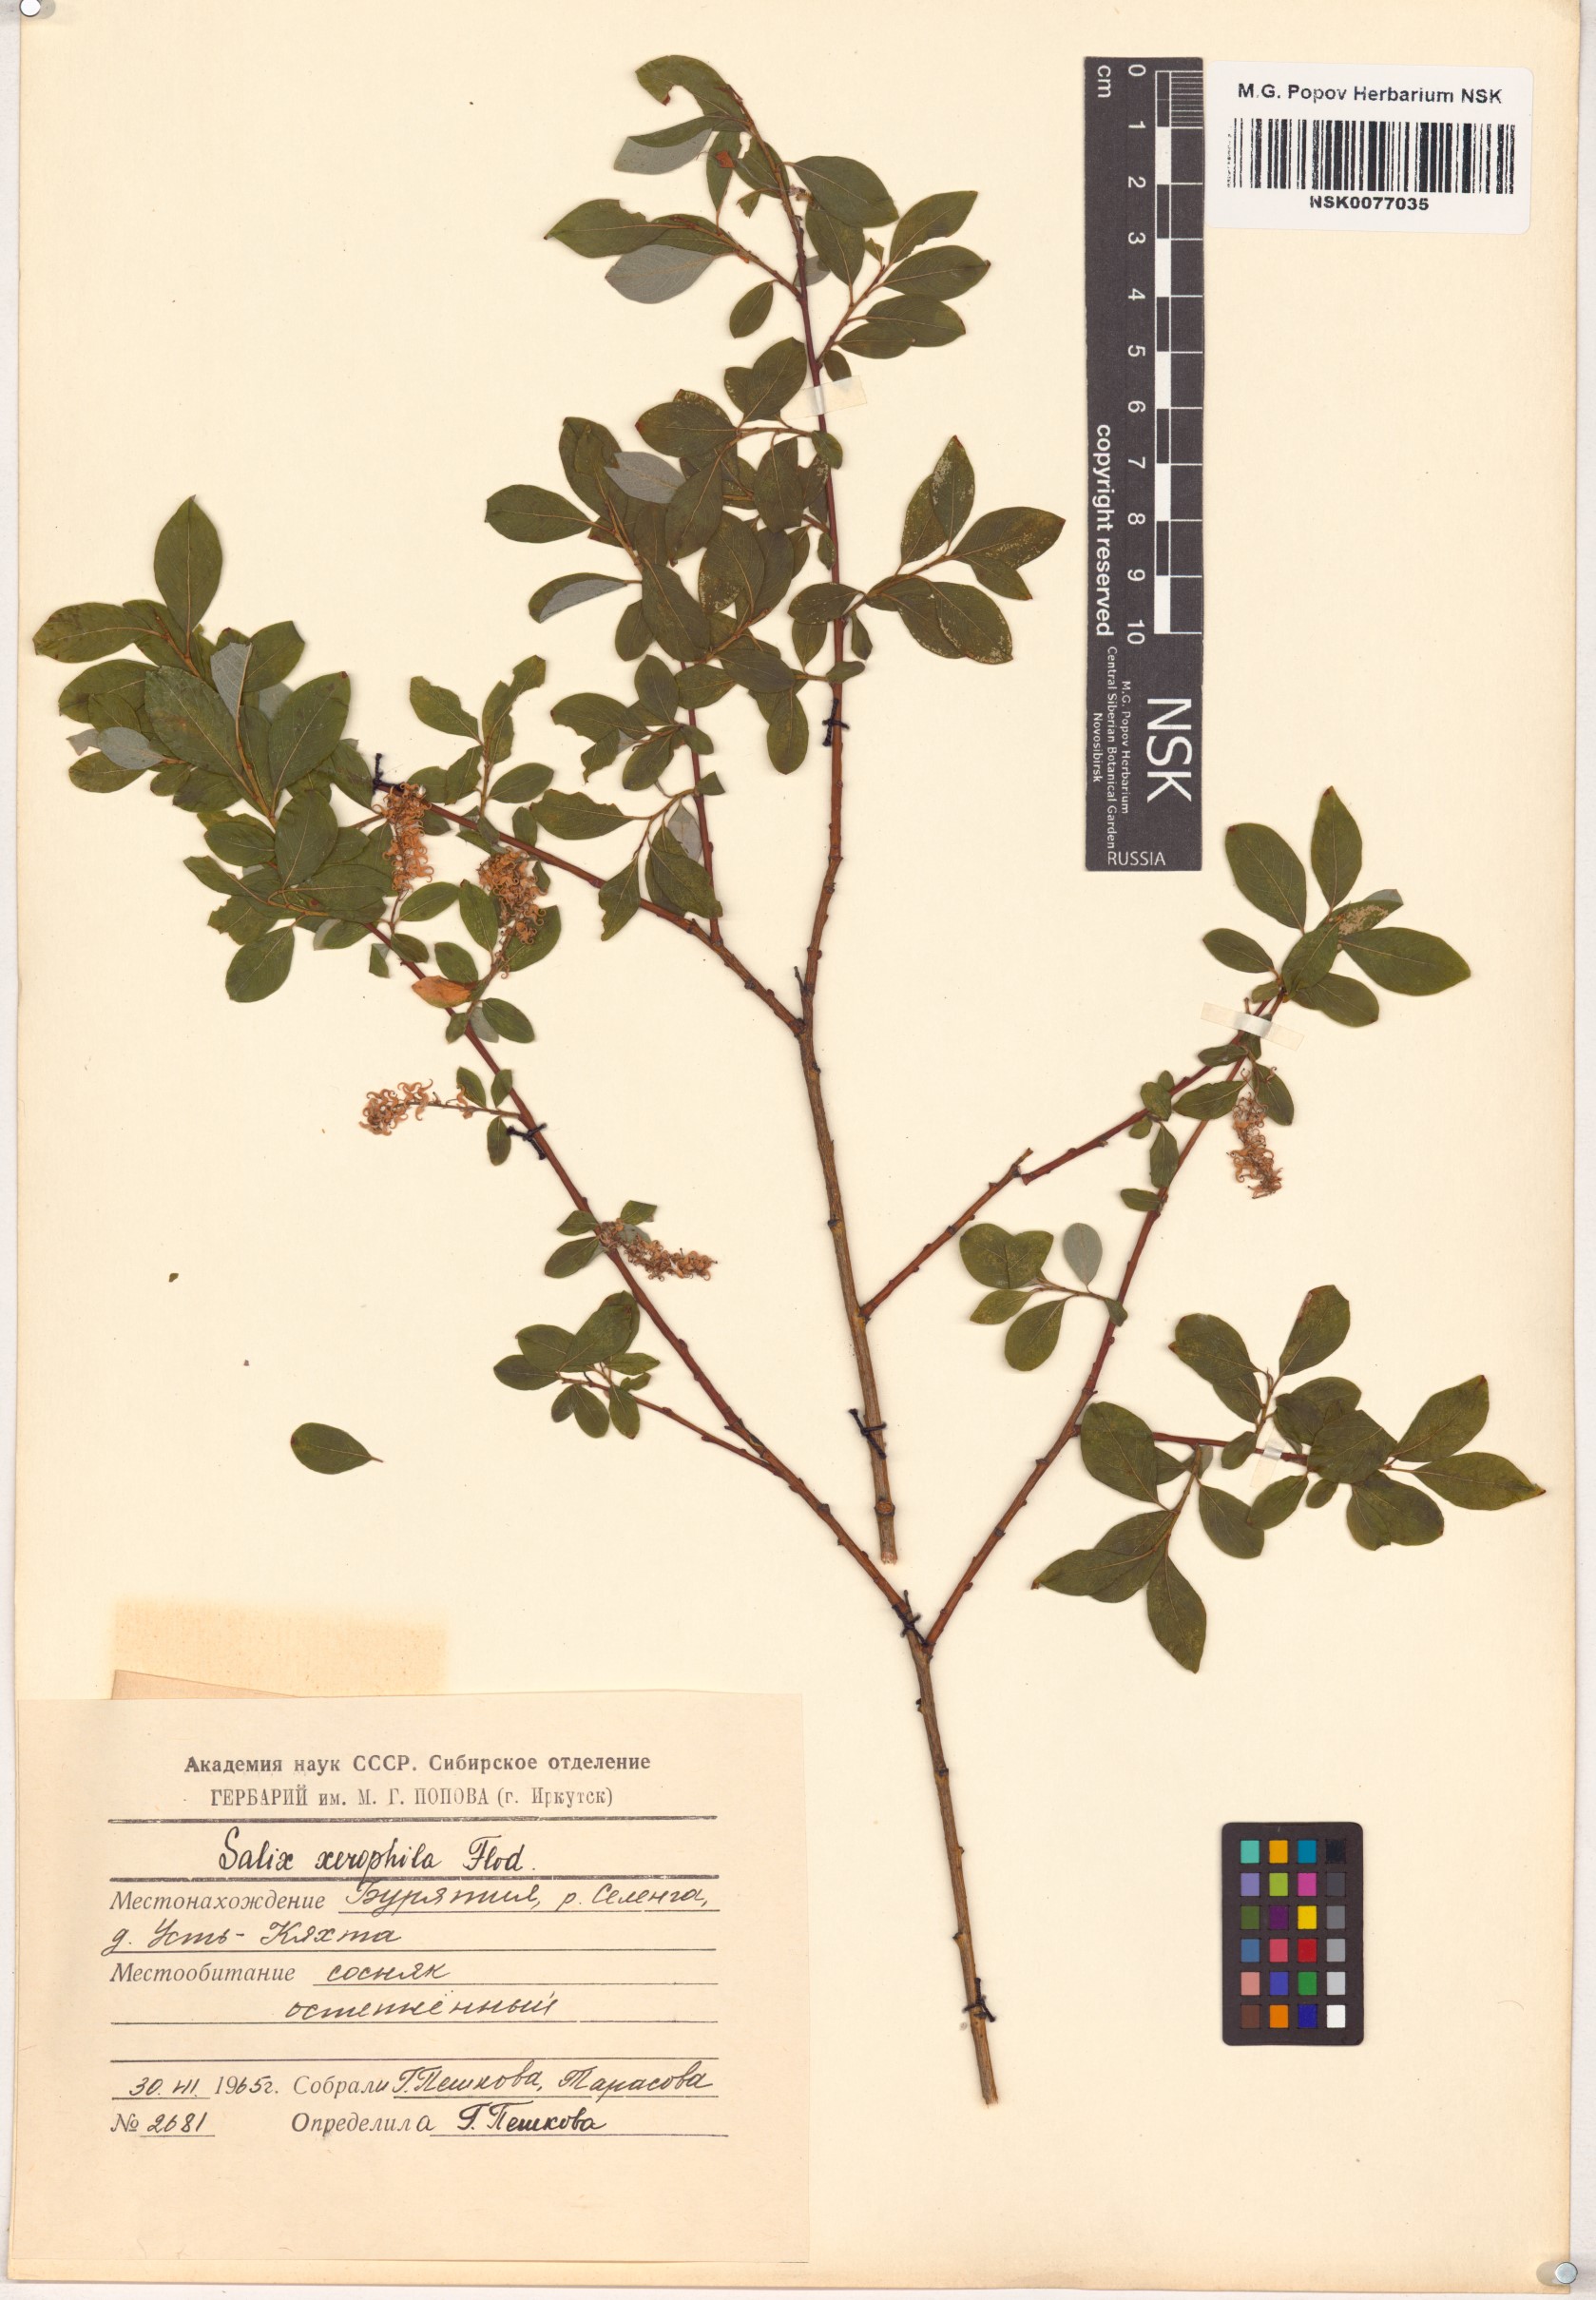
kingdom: Plantae
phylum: Tracheophyta
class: Magnoliopsida
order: Malpighiales
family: Salicaceae
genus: Salix
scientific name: Salix bebbiana
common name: Bebb's willow
